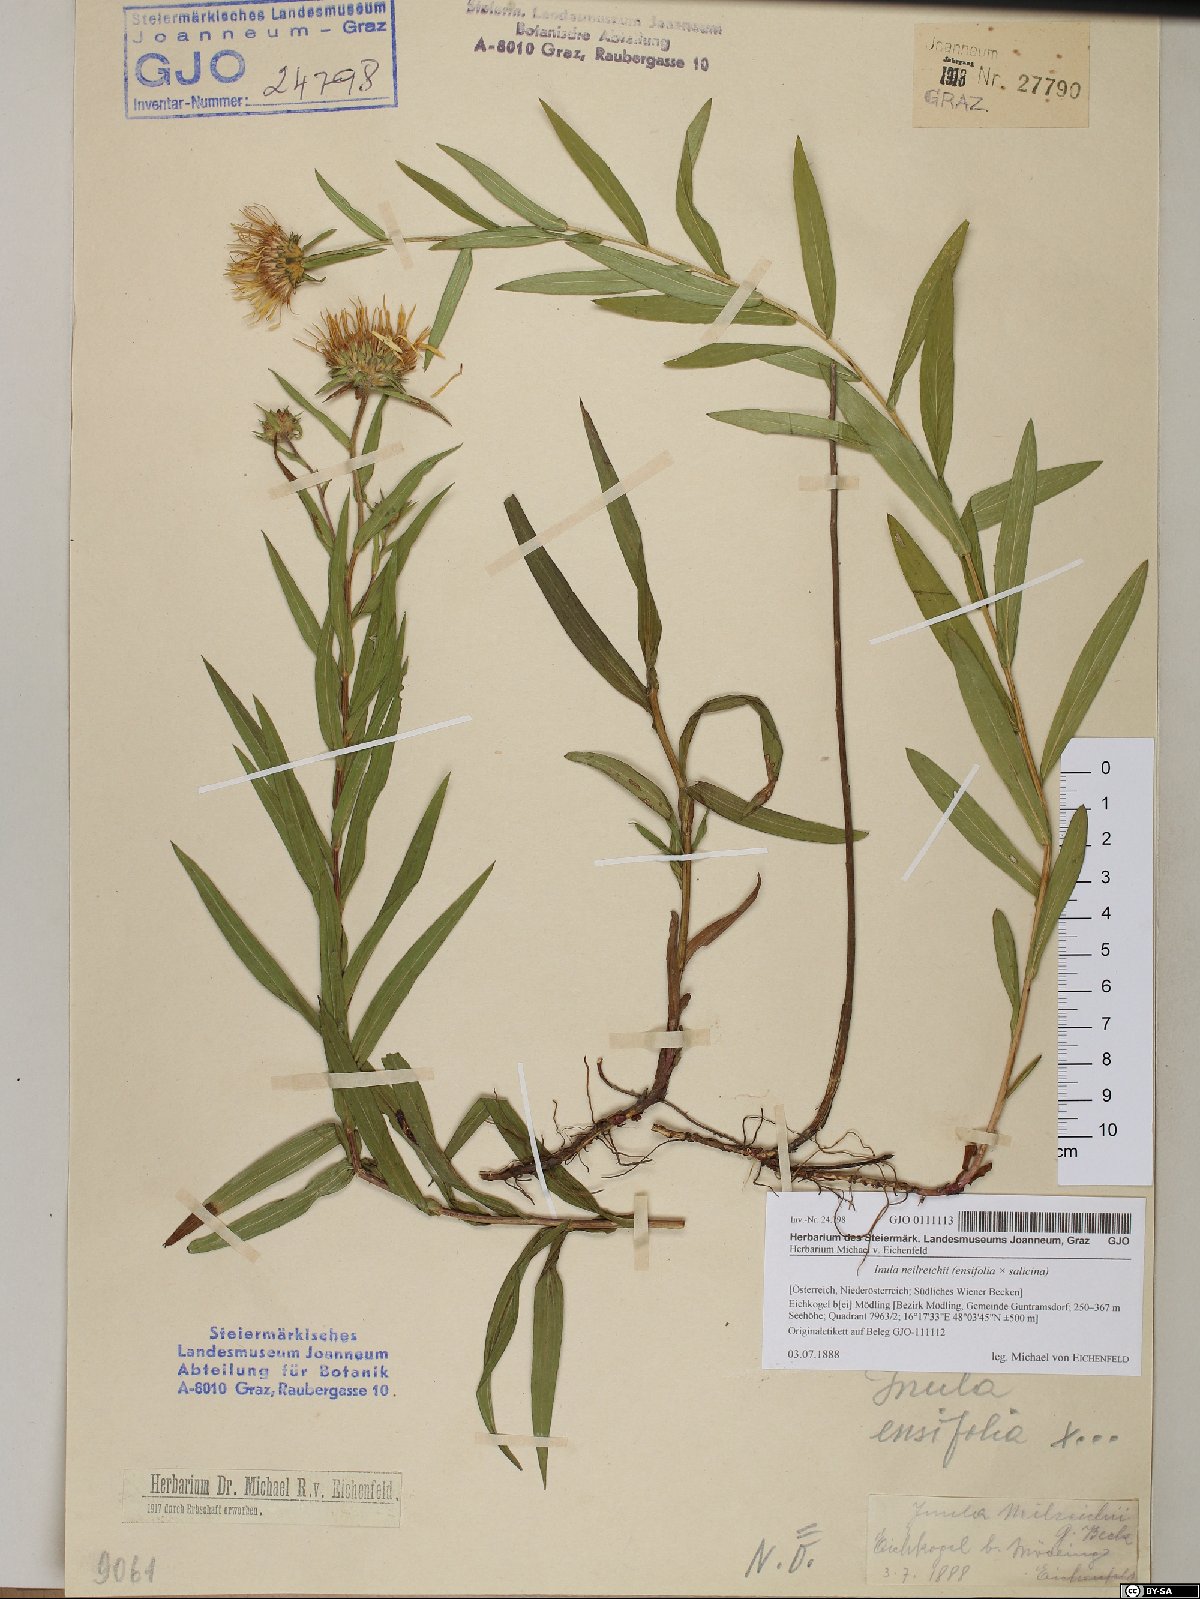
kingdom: Plantae
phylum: Tracheophyta
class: Magnoliopsida
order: Asterales
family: Asteraceae
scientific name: Asteraceae
